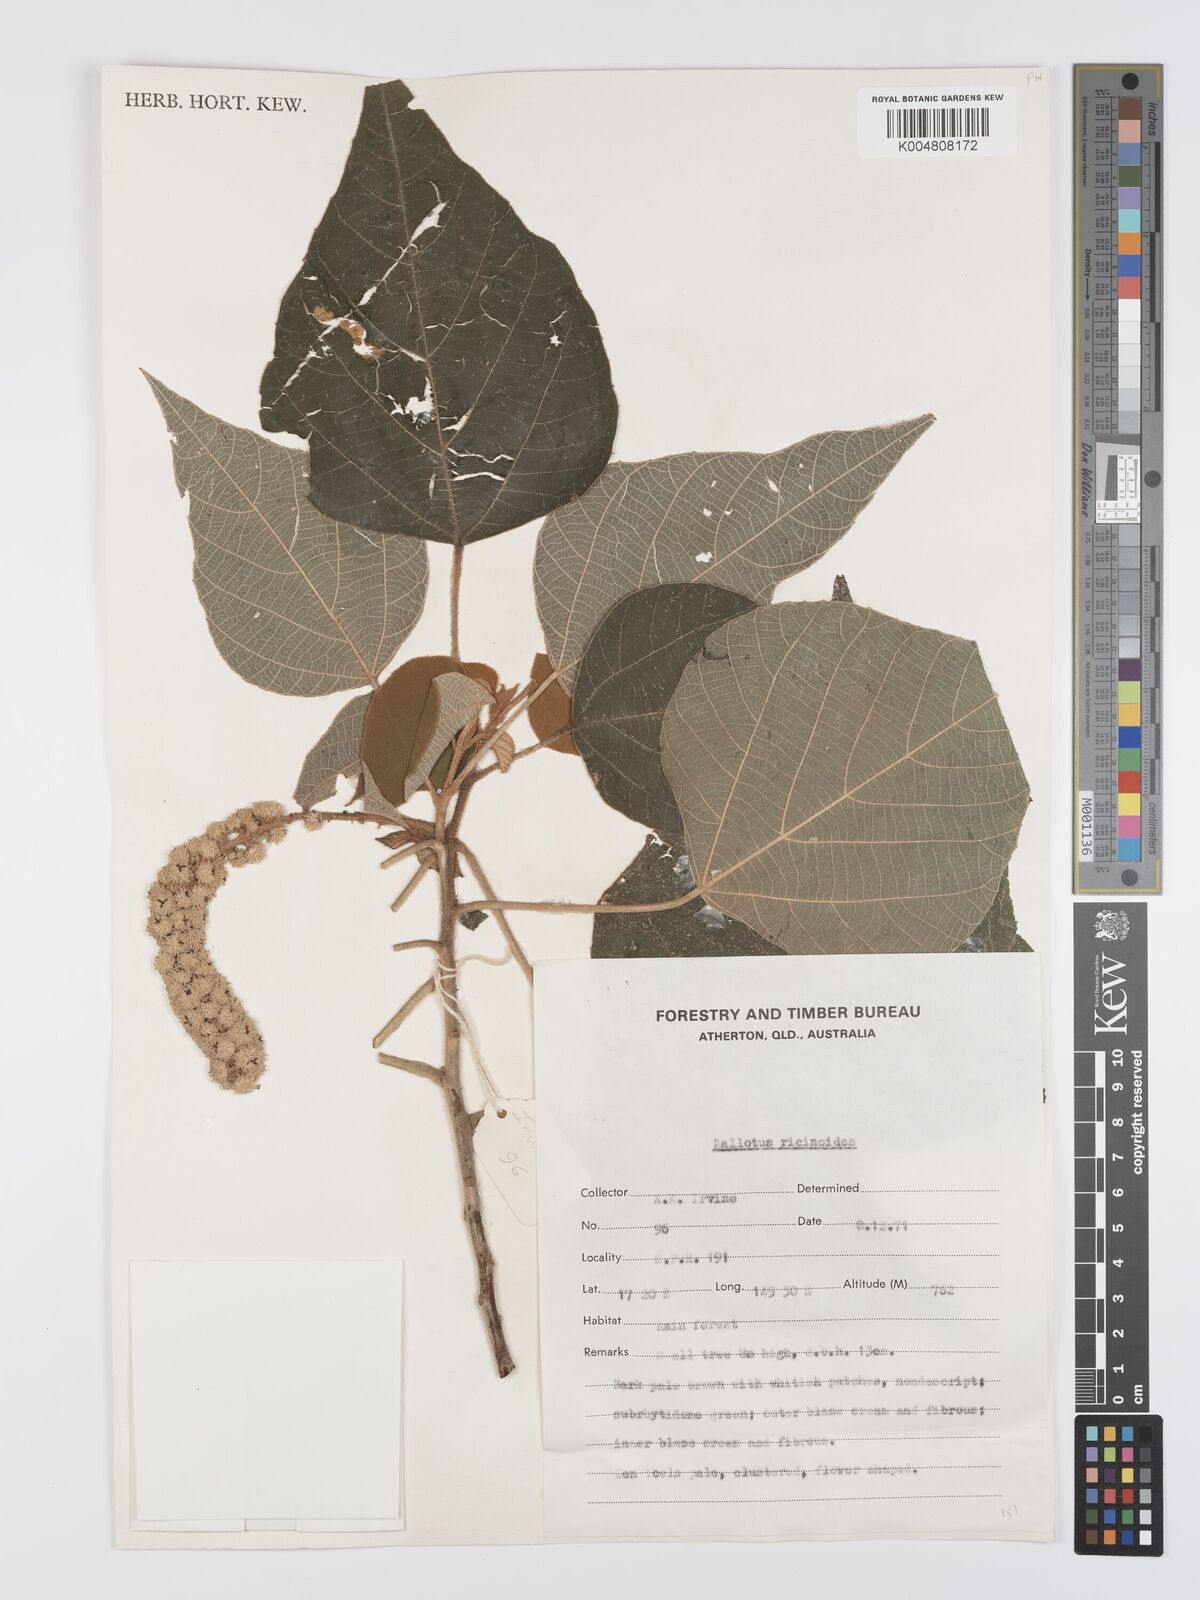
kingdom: Plantae
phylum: Tracheophyta
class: Magnoliopsida
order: Malpighiales
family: Euphorbiaceae
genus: Mallotus
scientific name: Mallotus mollissimus
